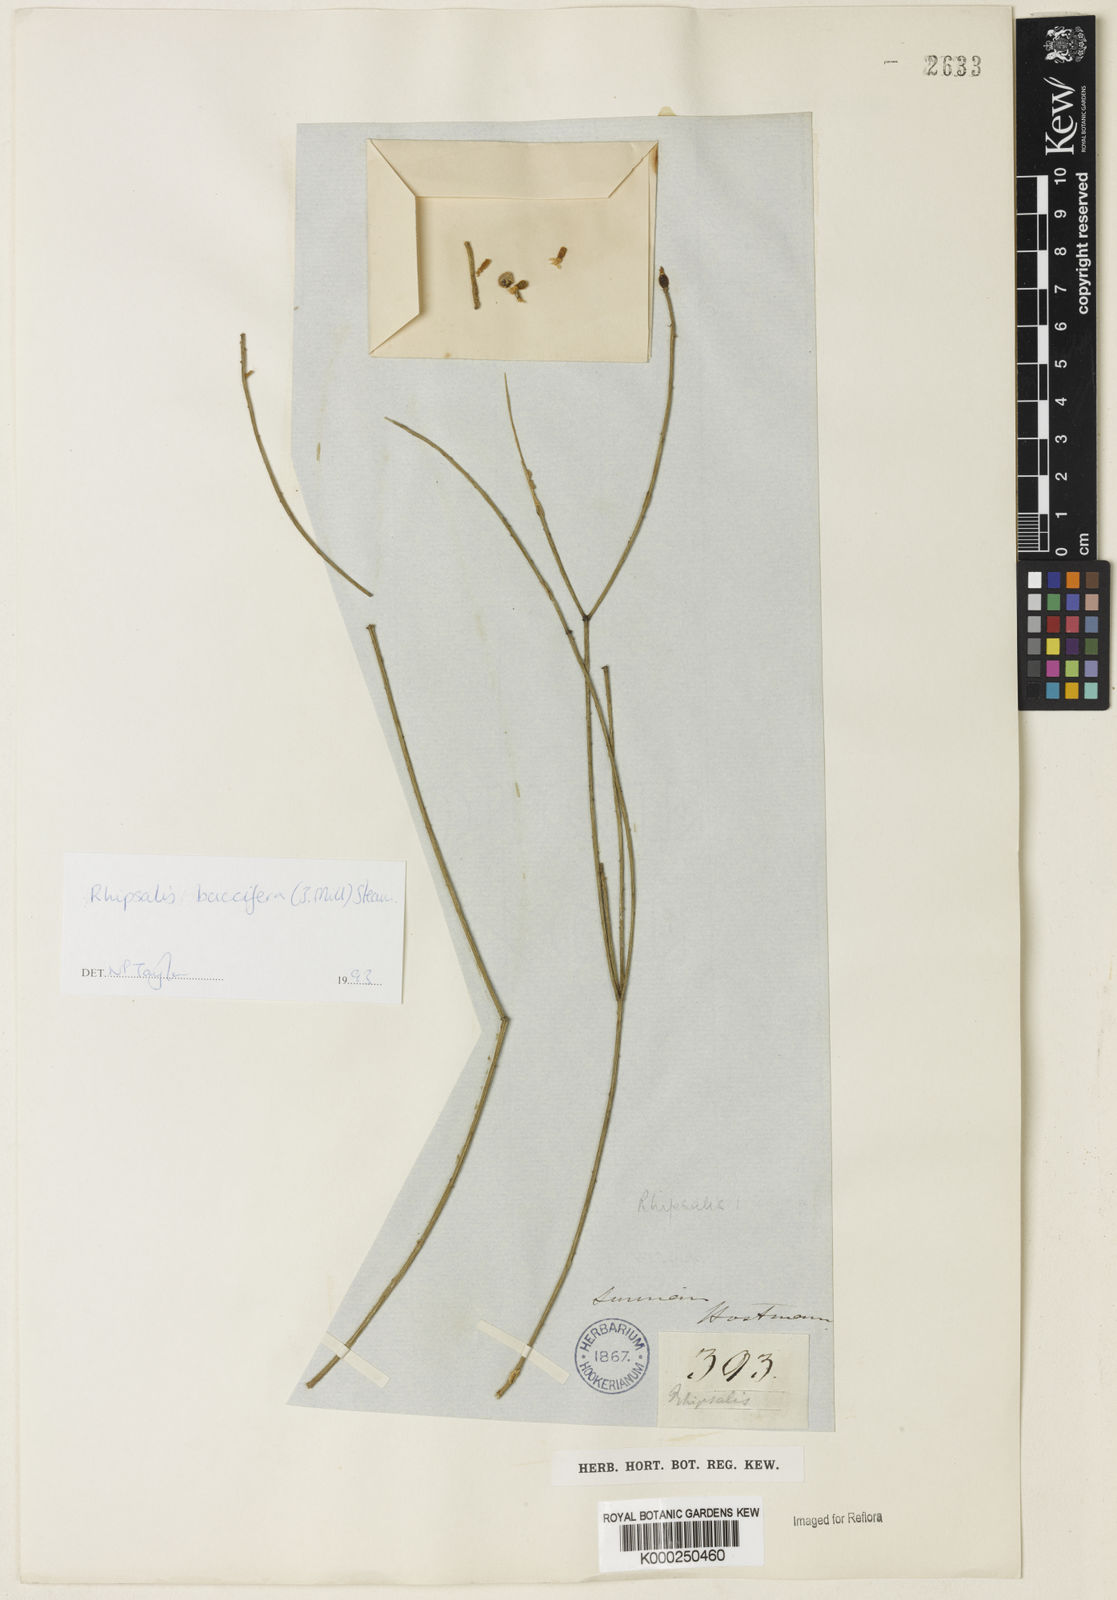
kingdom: Plantae
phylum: Tracheophyta
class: Magnoliopsida
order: Caryophyllales
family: Cactaceae
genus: Rhipsalis
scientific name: Rhipsalis baccifera
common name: Mistletoe cactus
